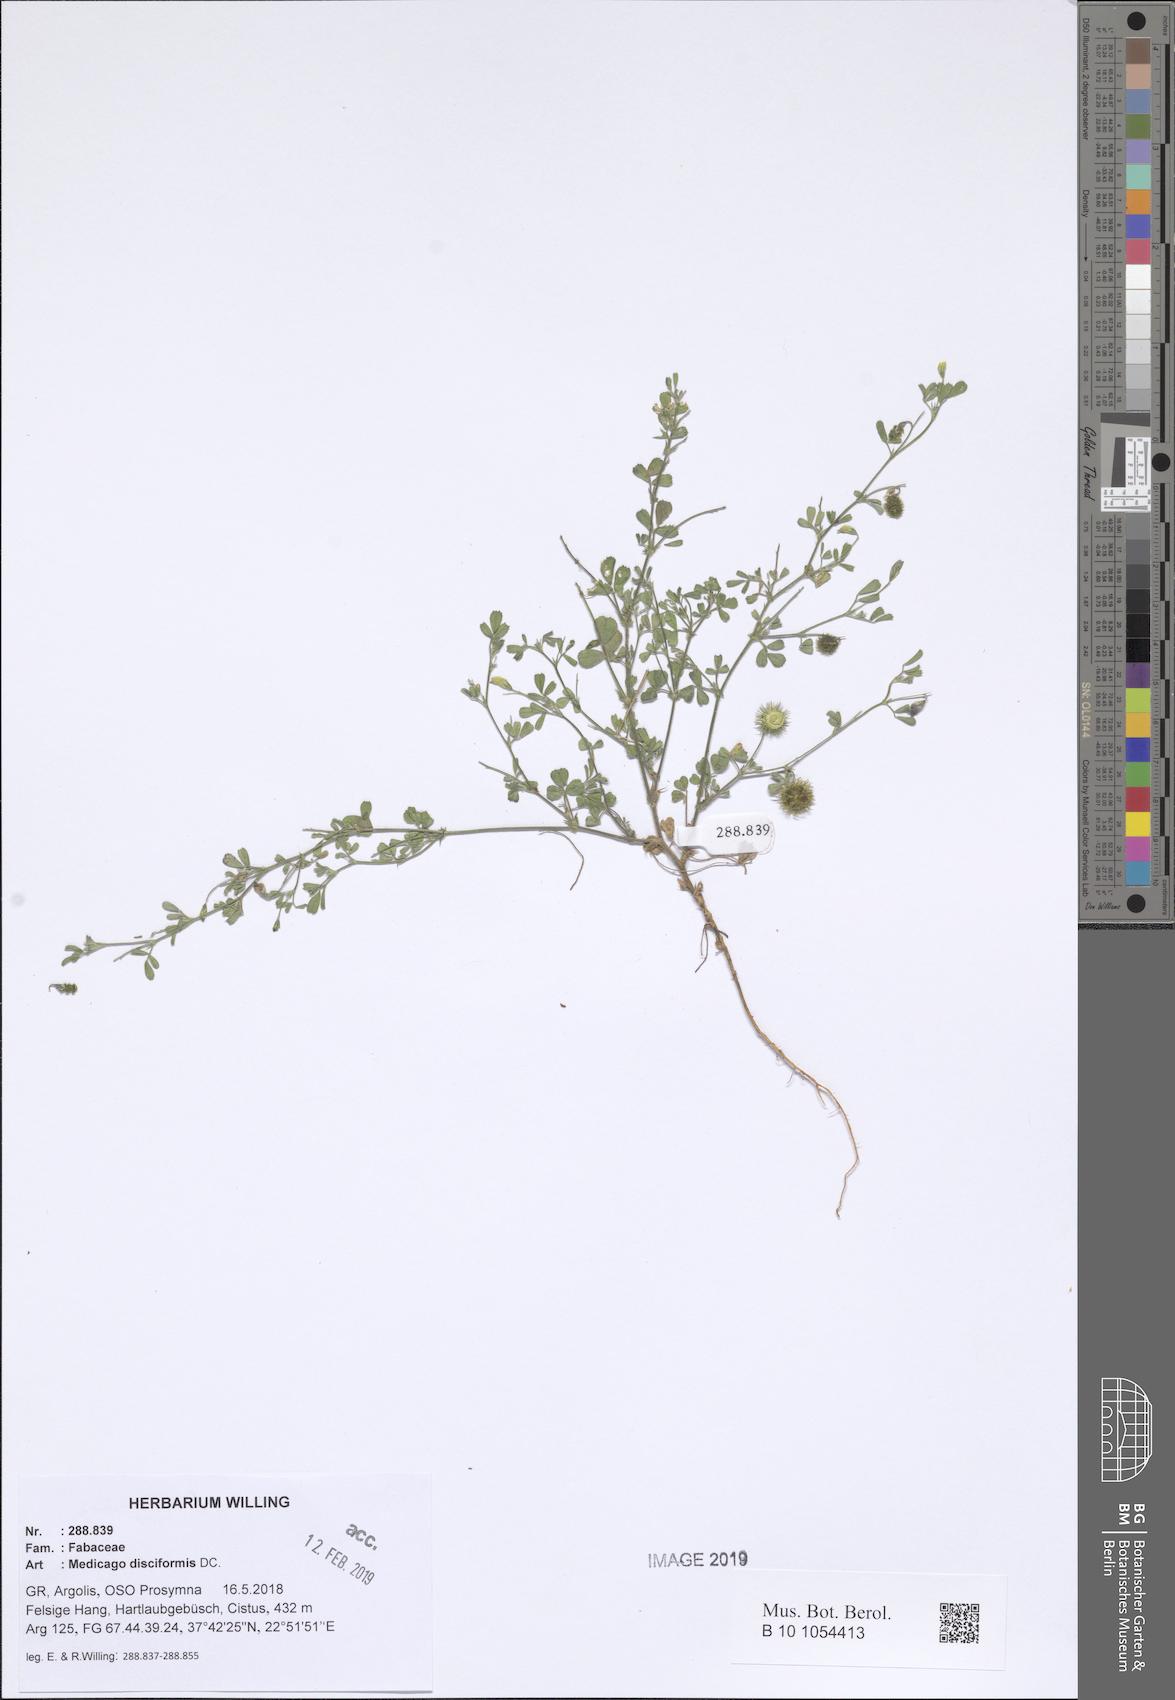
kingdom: Plantae
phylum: Tracheophyta
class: Magnoliopsida
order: Fabales
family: Fabaceae
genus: Medicago
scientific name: Medicago disciformis
